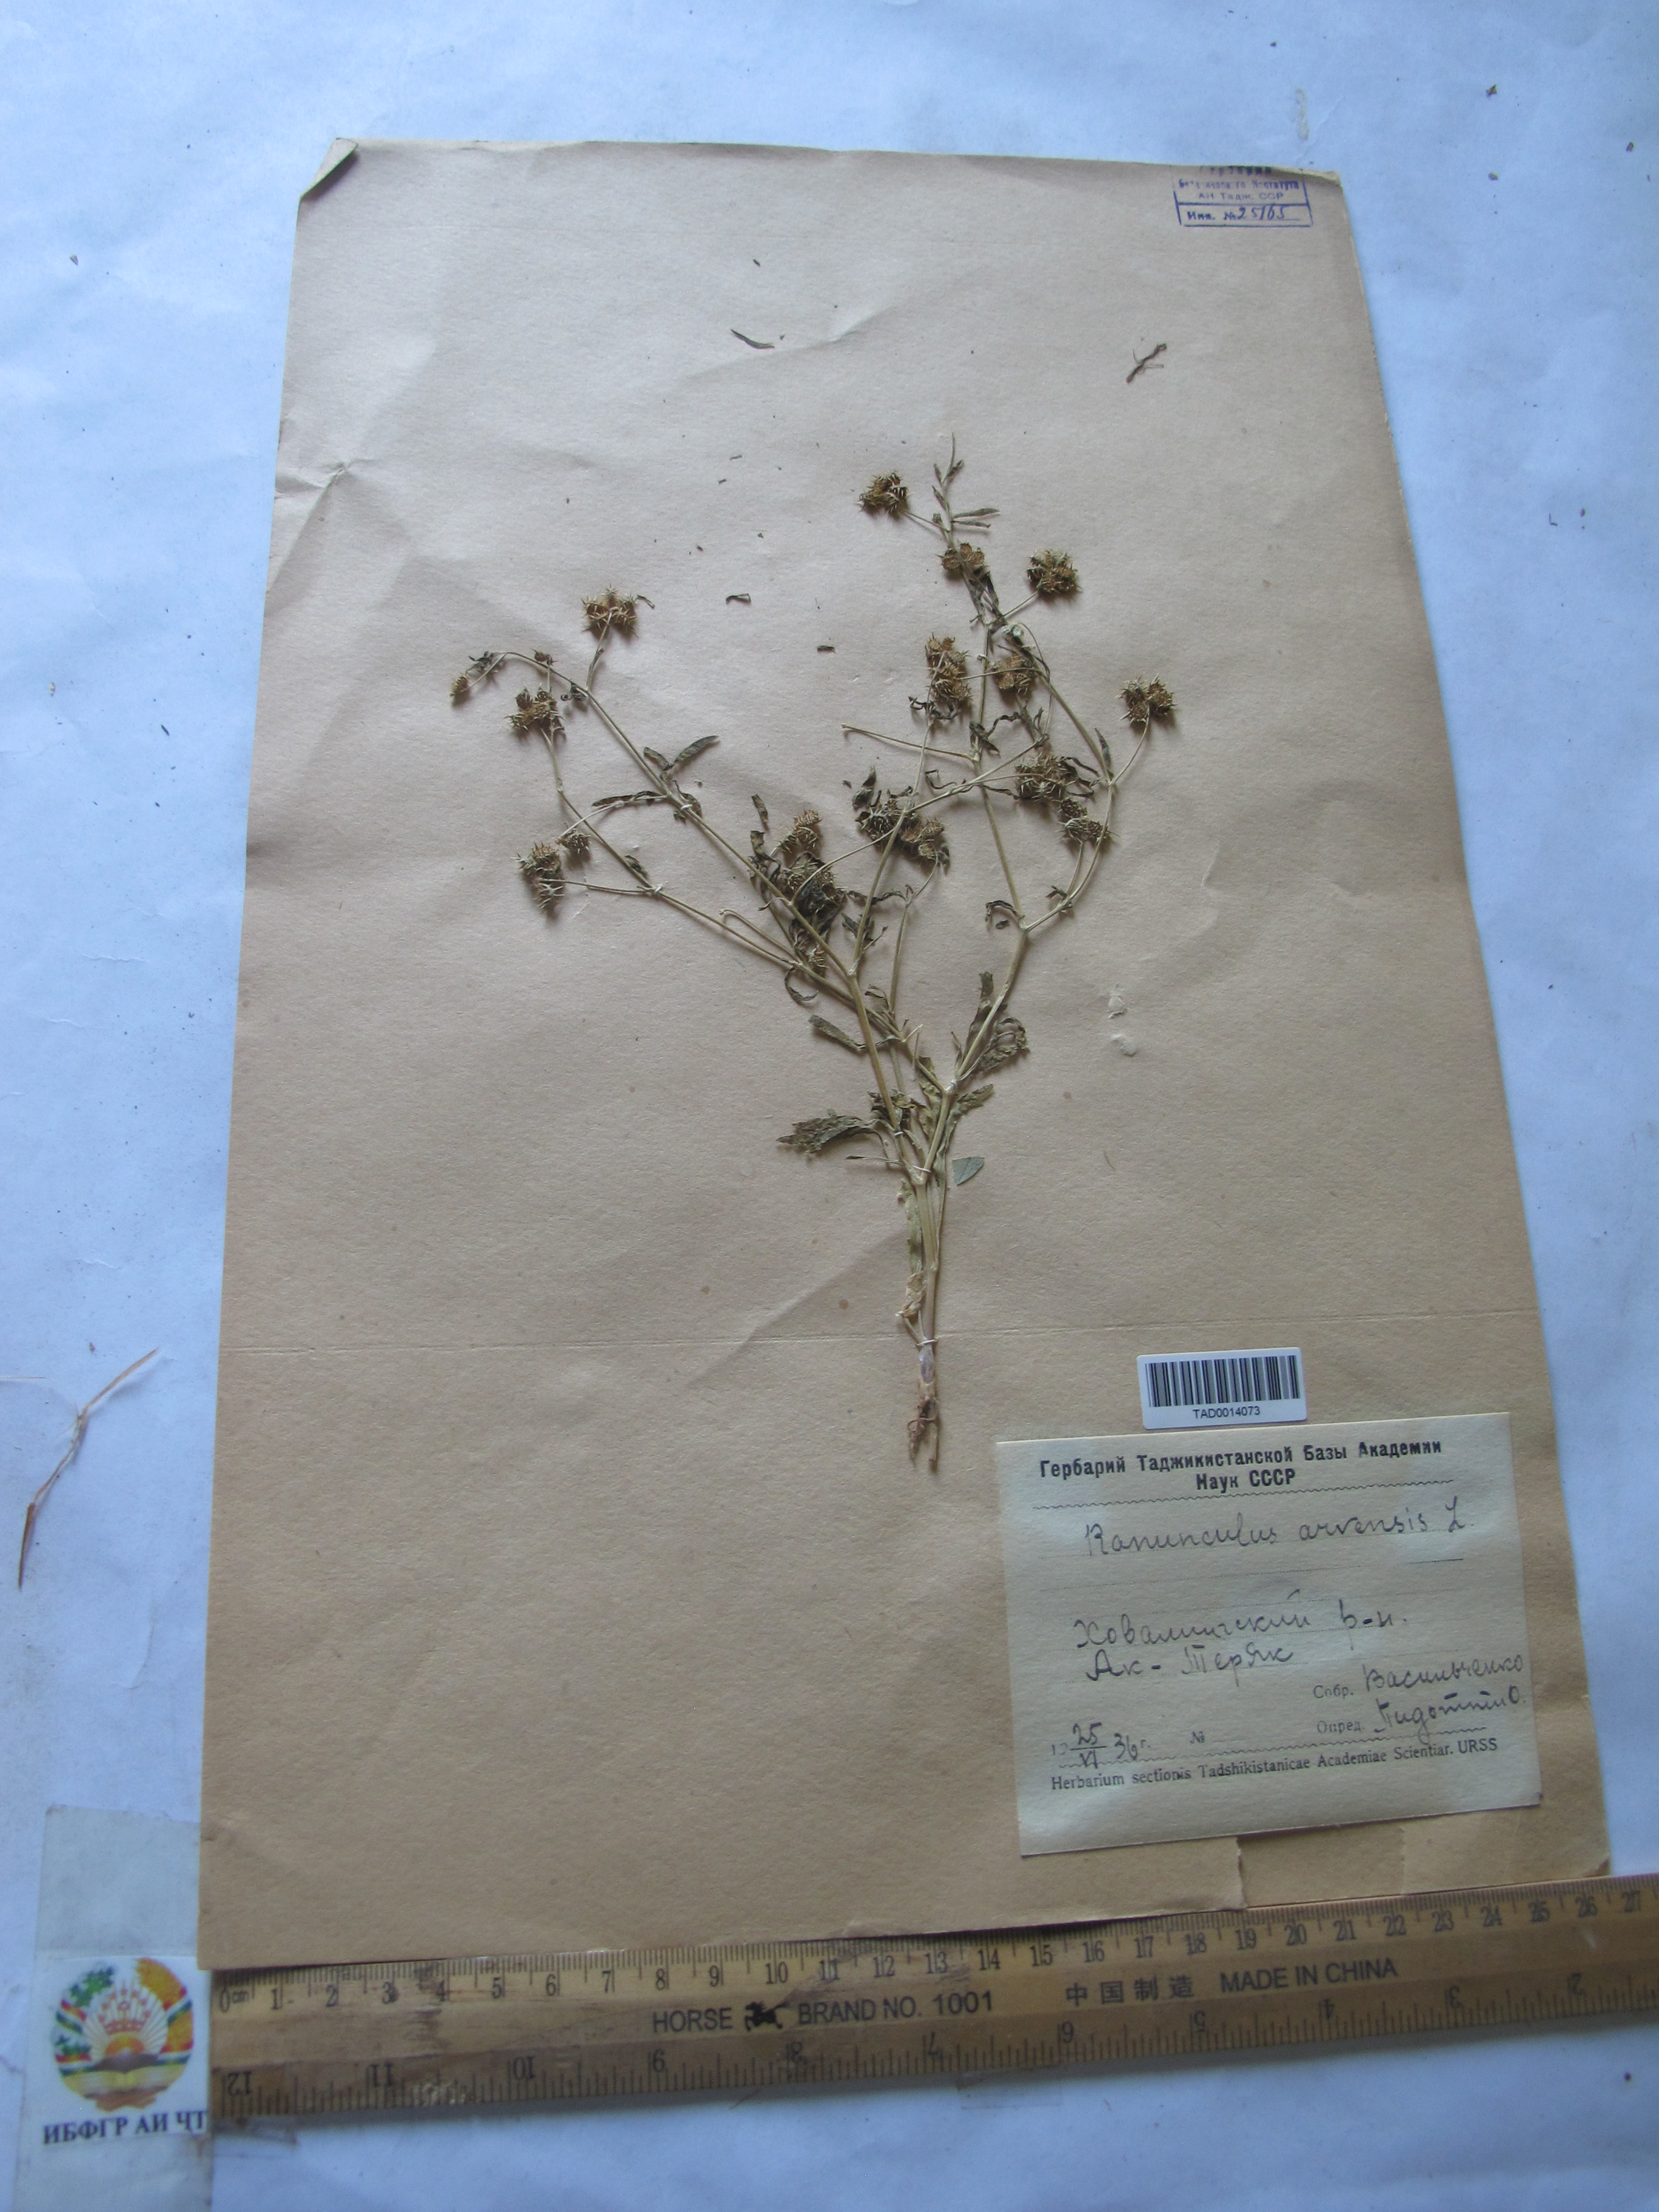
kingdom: Plantae
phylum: Tracheophyta
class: Magnoliopsida
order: Ranunculales
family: Ranunculaceae
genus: Ranunculus
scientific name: Ranunculus arvensis
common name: Corn buttercup
